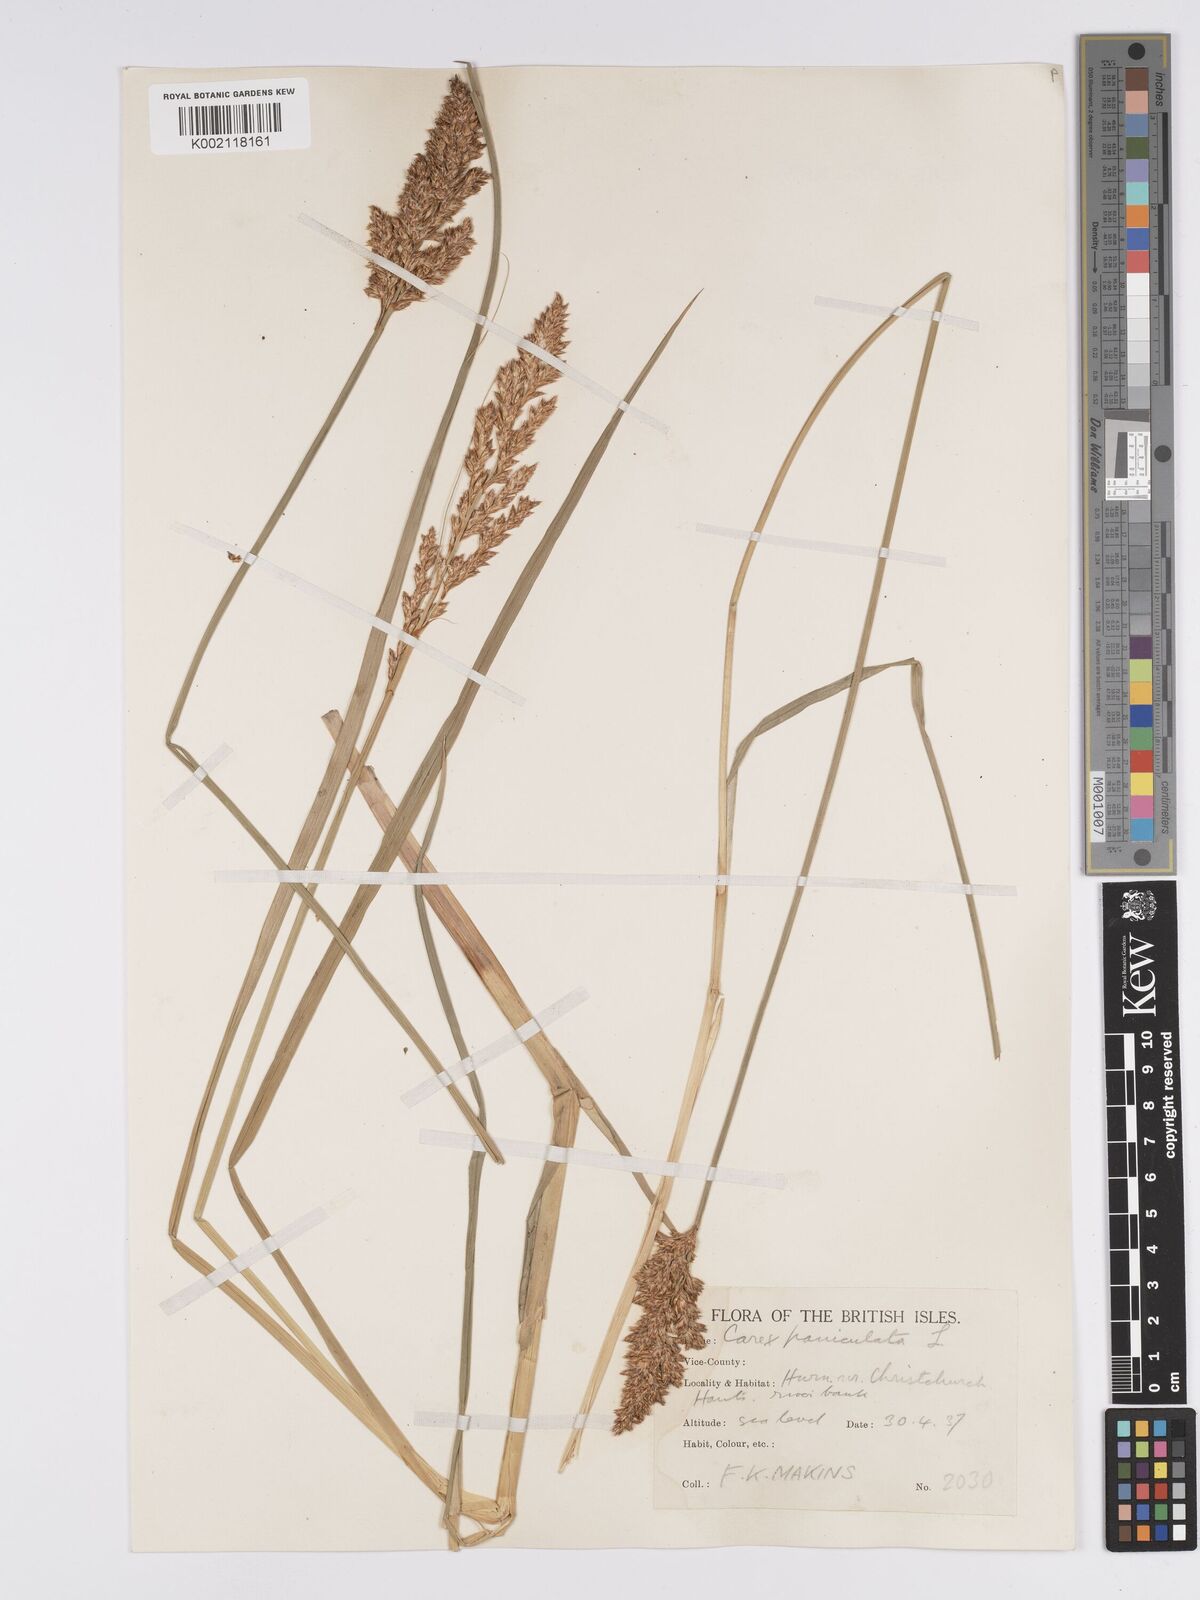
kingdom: Plantae
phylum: Tracheophyta
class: Liliopsida
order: Poales
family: Cyperaceae
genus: Carex
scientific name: Carex paniculata
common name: Greater tussock-sedge
